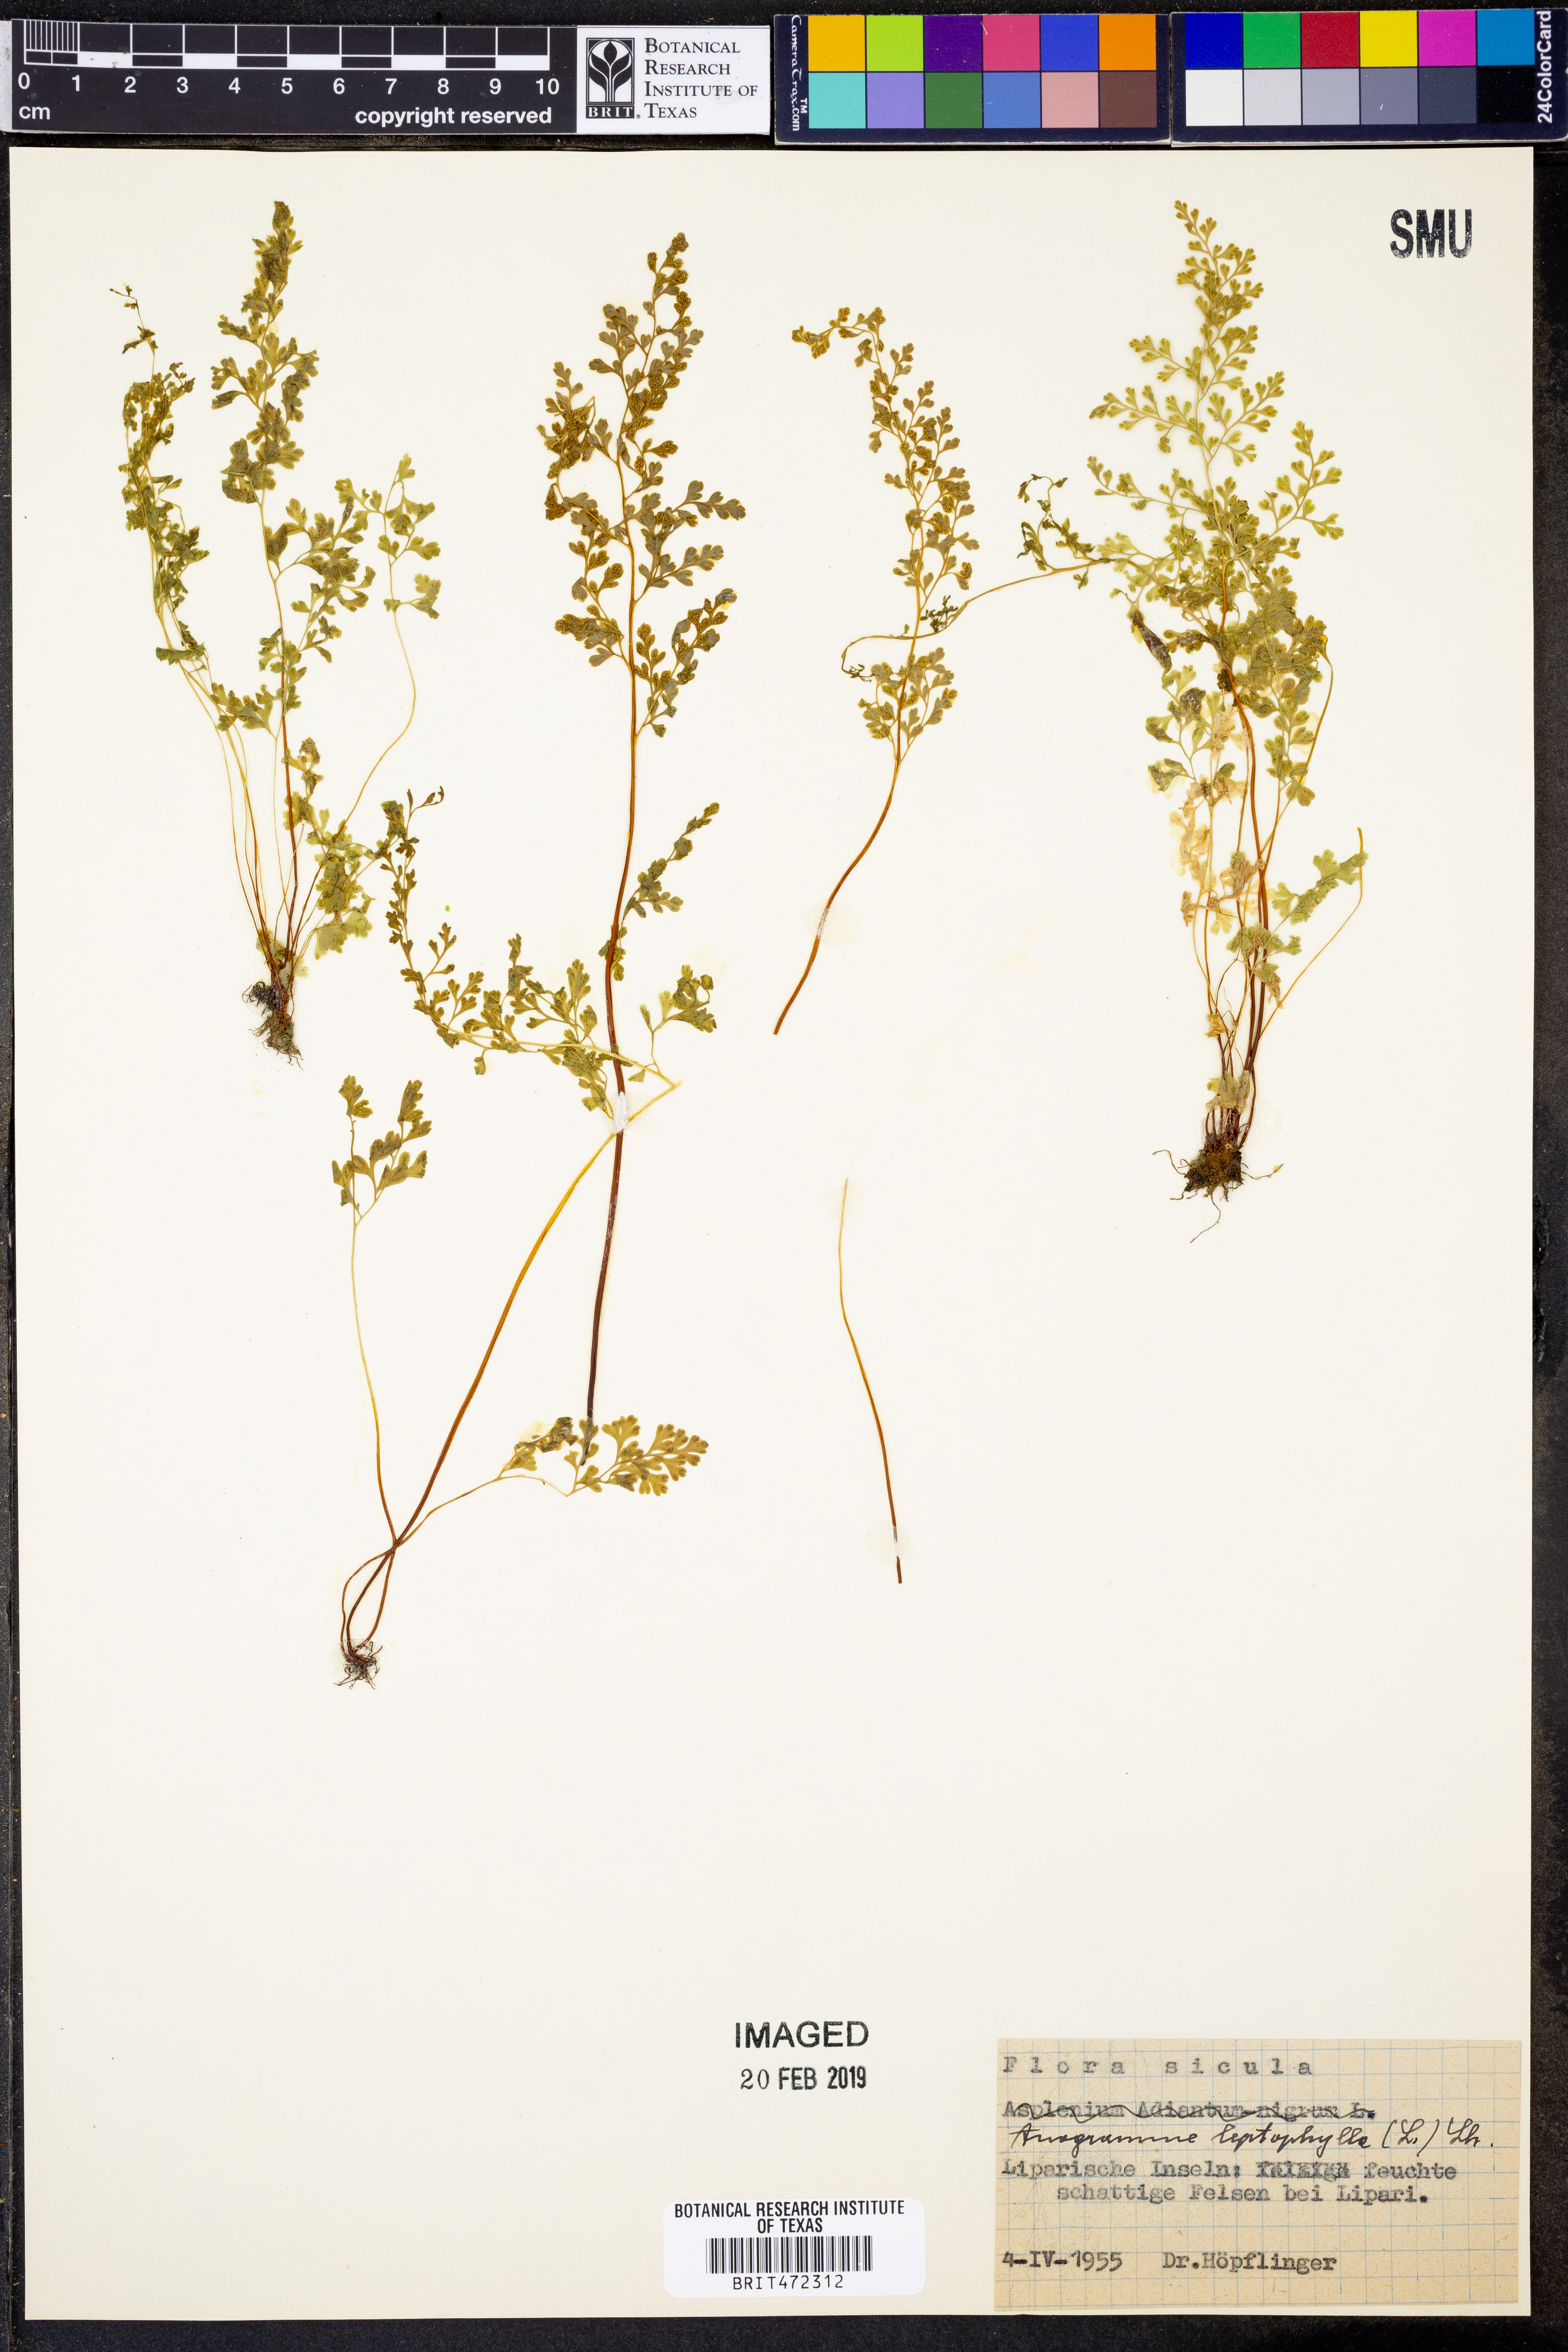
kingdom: Plantae
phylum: Tracheophyta
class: Polypodiopsida
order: Polypodiales
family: Pteridaceae
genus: Anogramma
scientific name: Anogramma leptophylla
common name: Jersey fern
